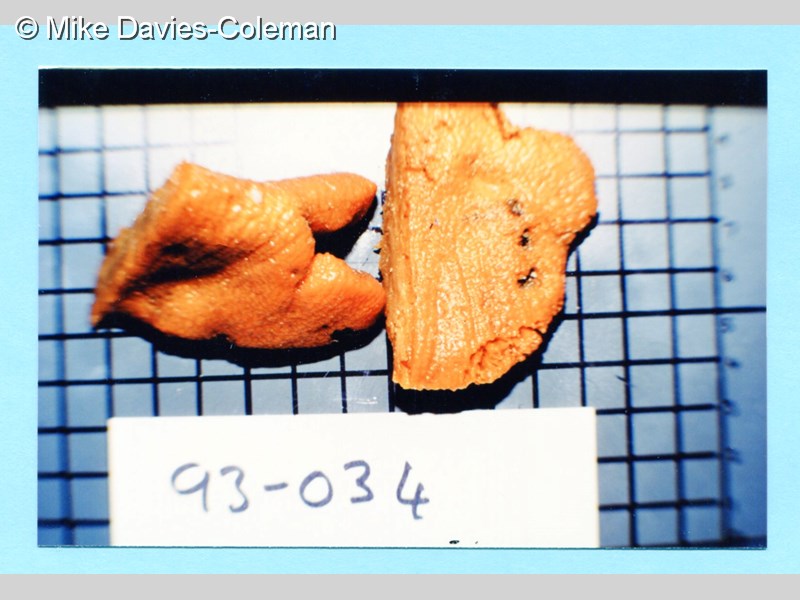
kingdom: Animalia
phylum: Porifera
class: Demospongiae
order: Suberitida
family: Halichondriidae
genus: Hymeniacidon
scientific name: Hymeniacidon
